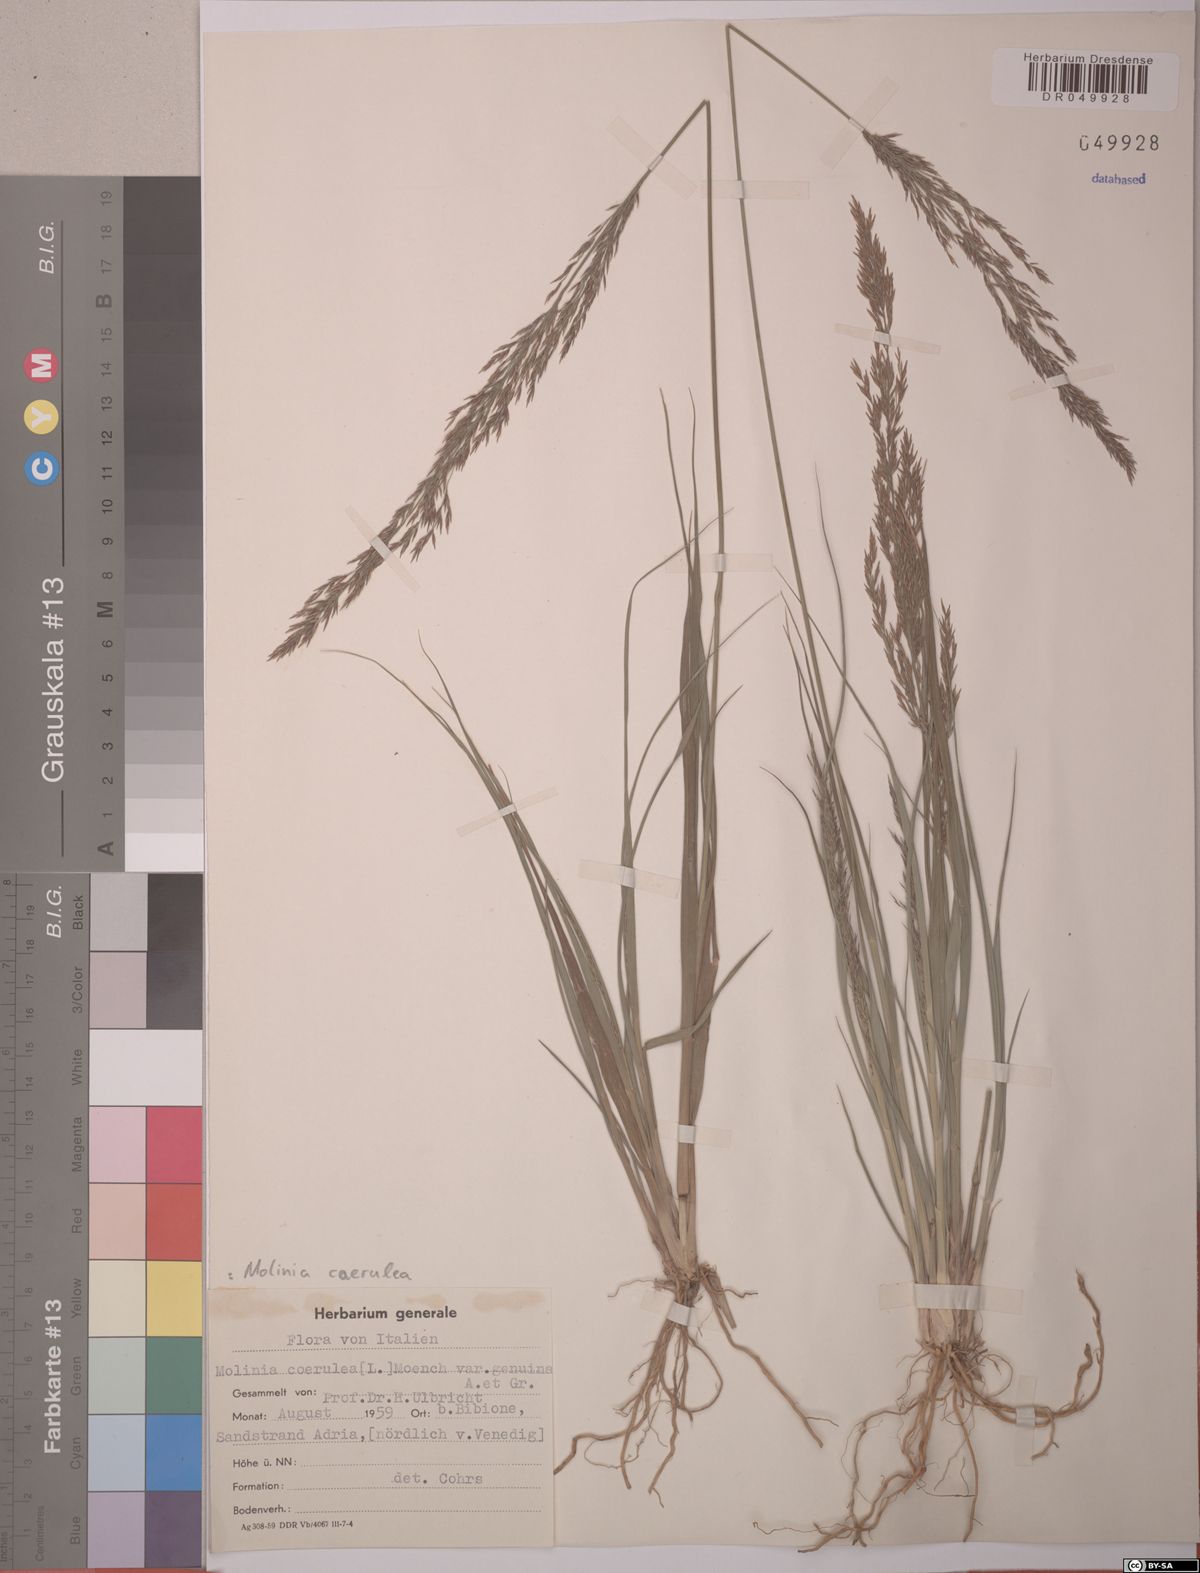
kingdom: Plantae
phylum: Tracheophyta
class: Liliopsida
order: Poales
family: Poaceae
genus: Molinia
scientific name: Molinia caerulea
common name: Purple moor-grass
